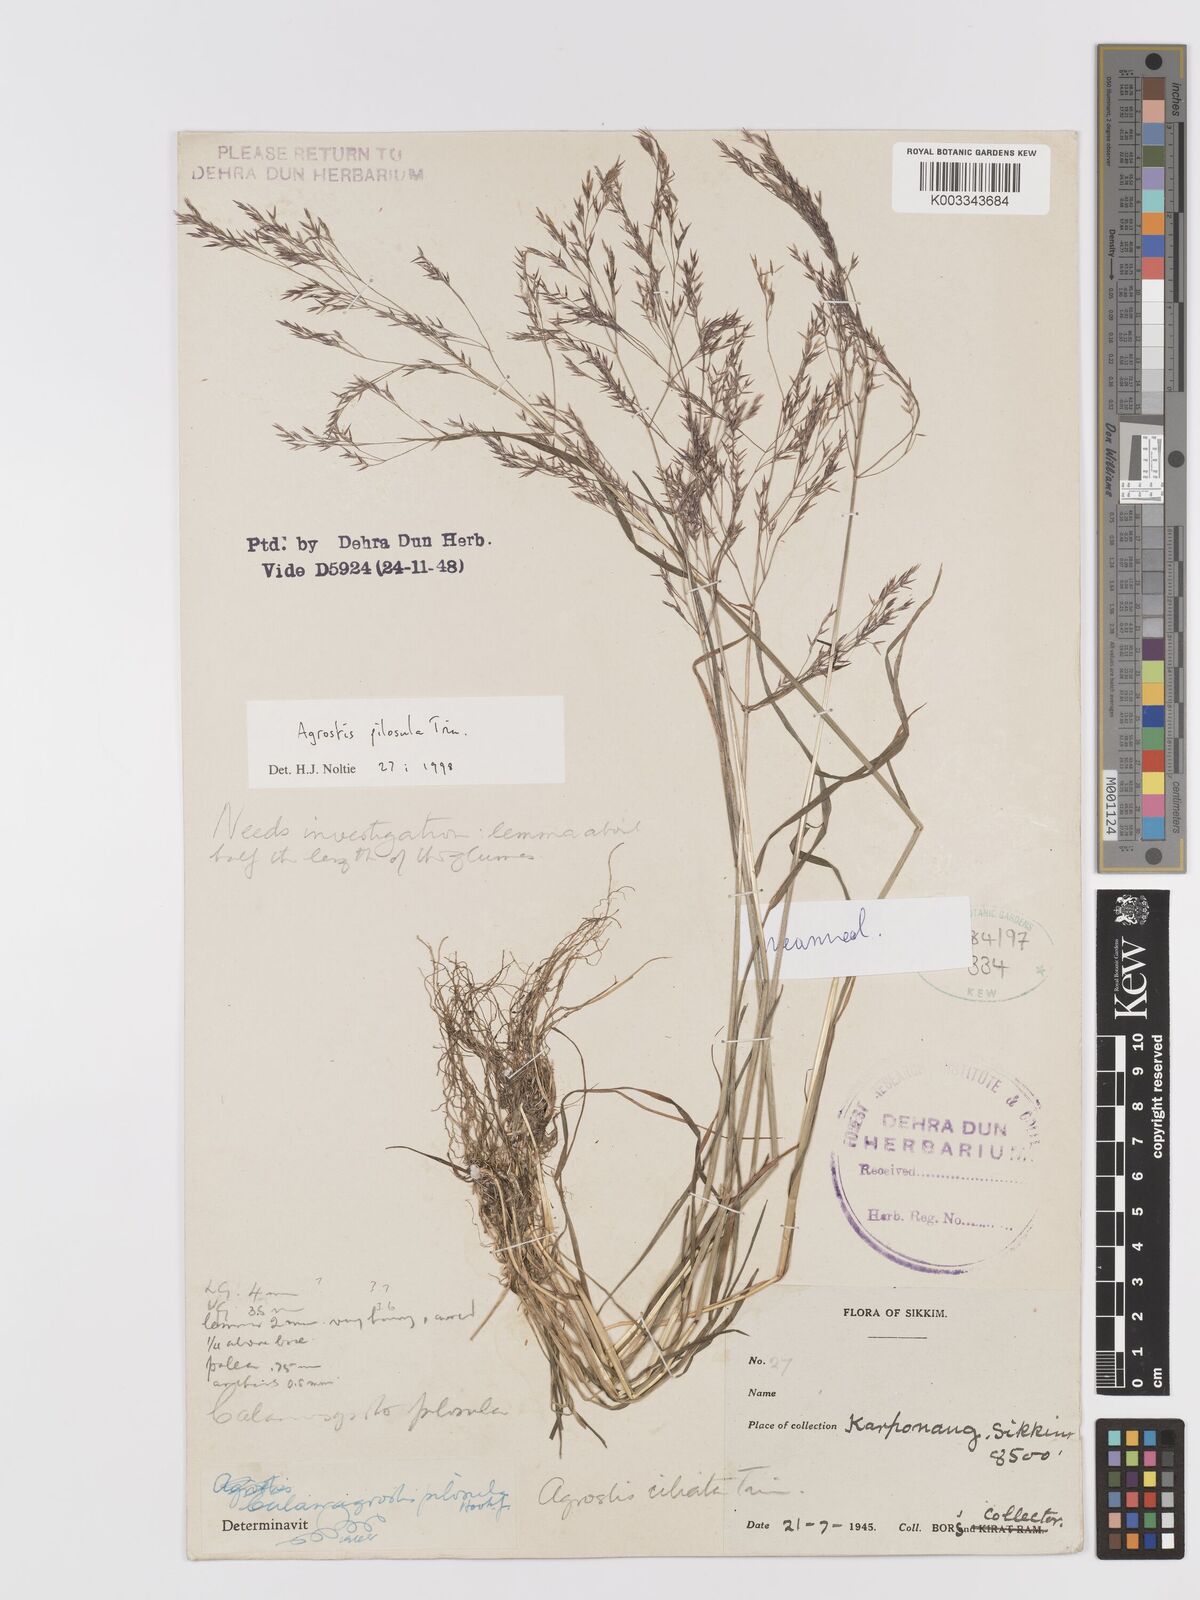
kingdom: Plantae
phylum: Tracheophyta
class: Liliopsida
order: Poales
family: Poaceae
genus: Agrostis
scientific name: Agrostis pilosula
